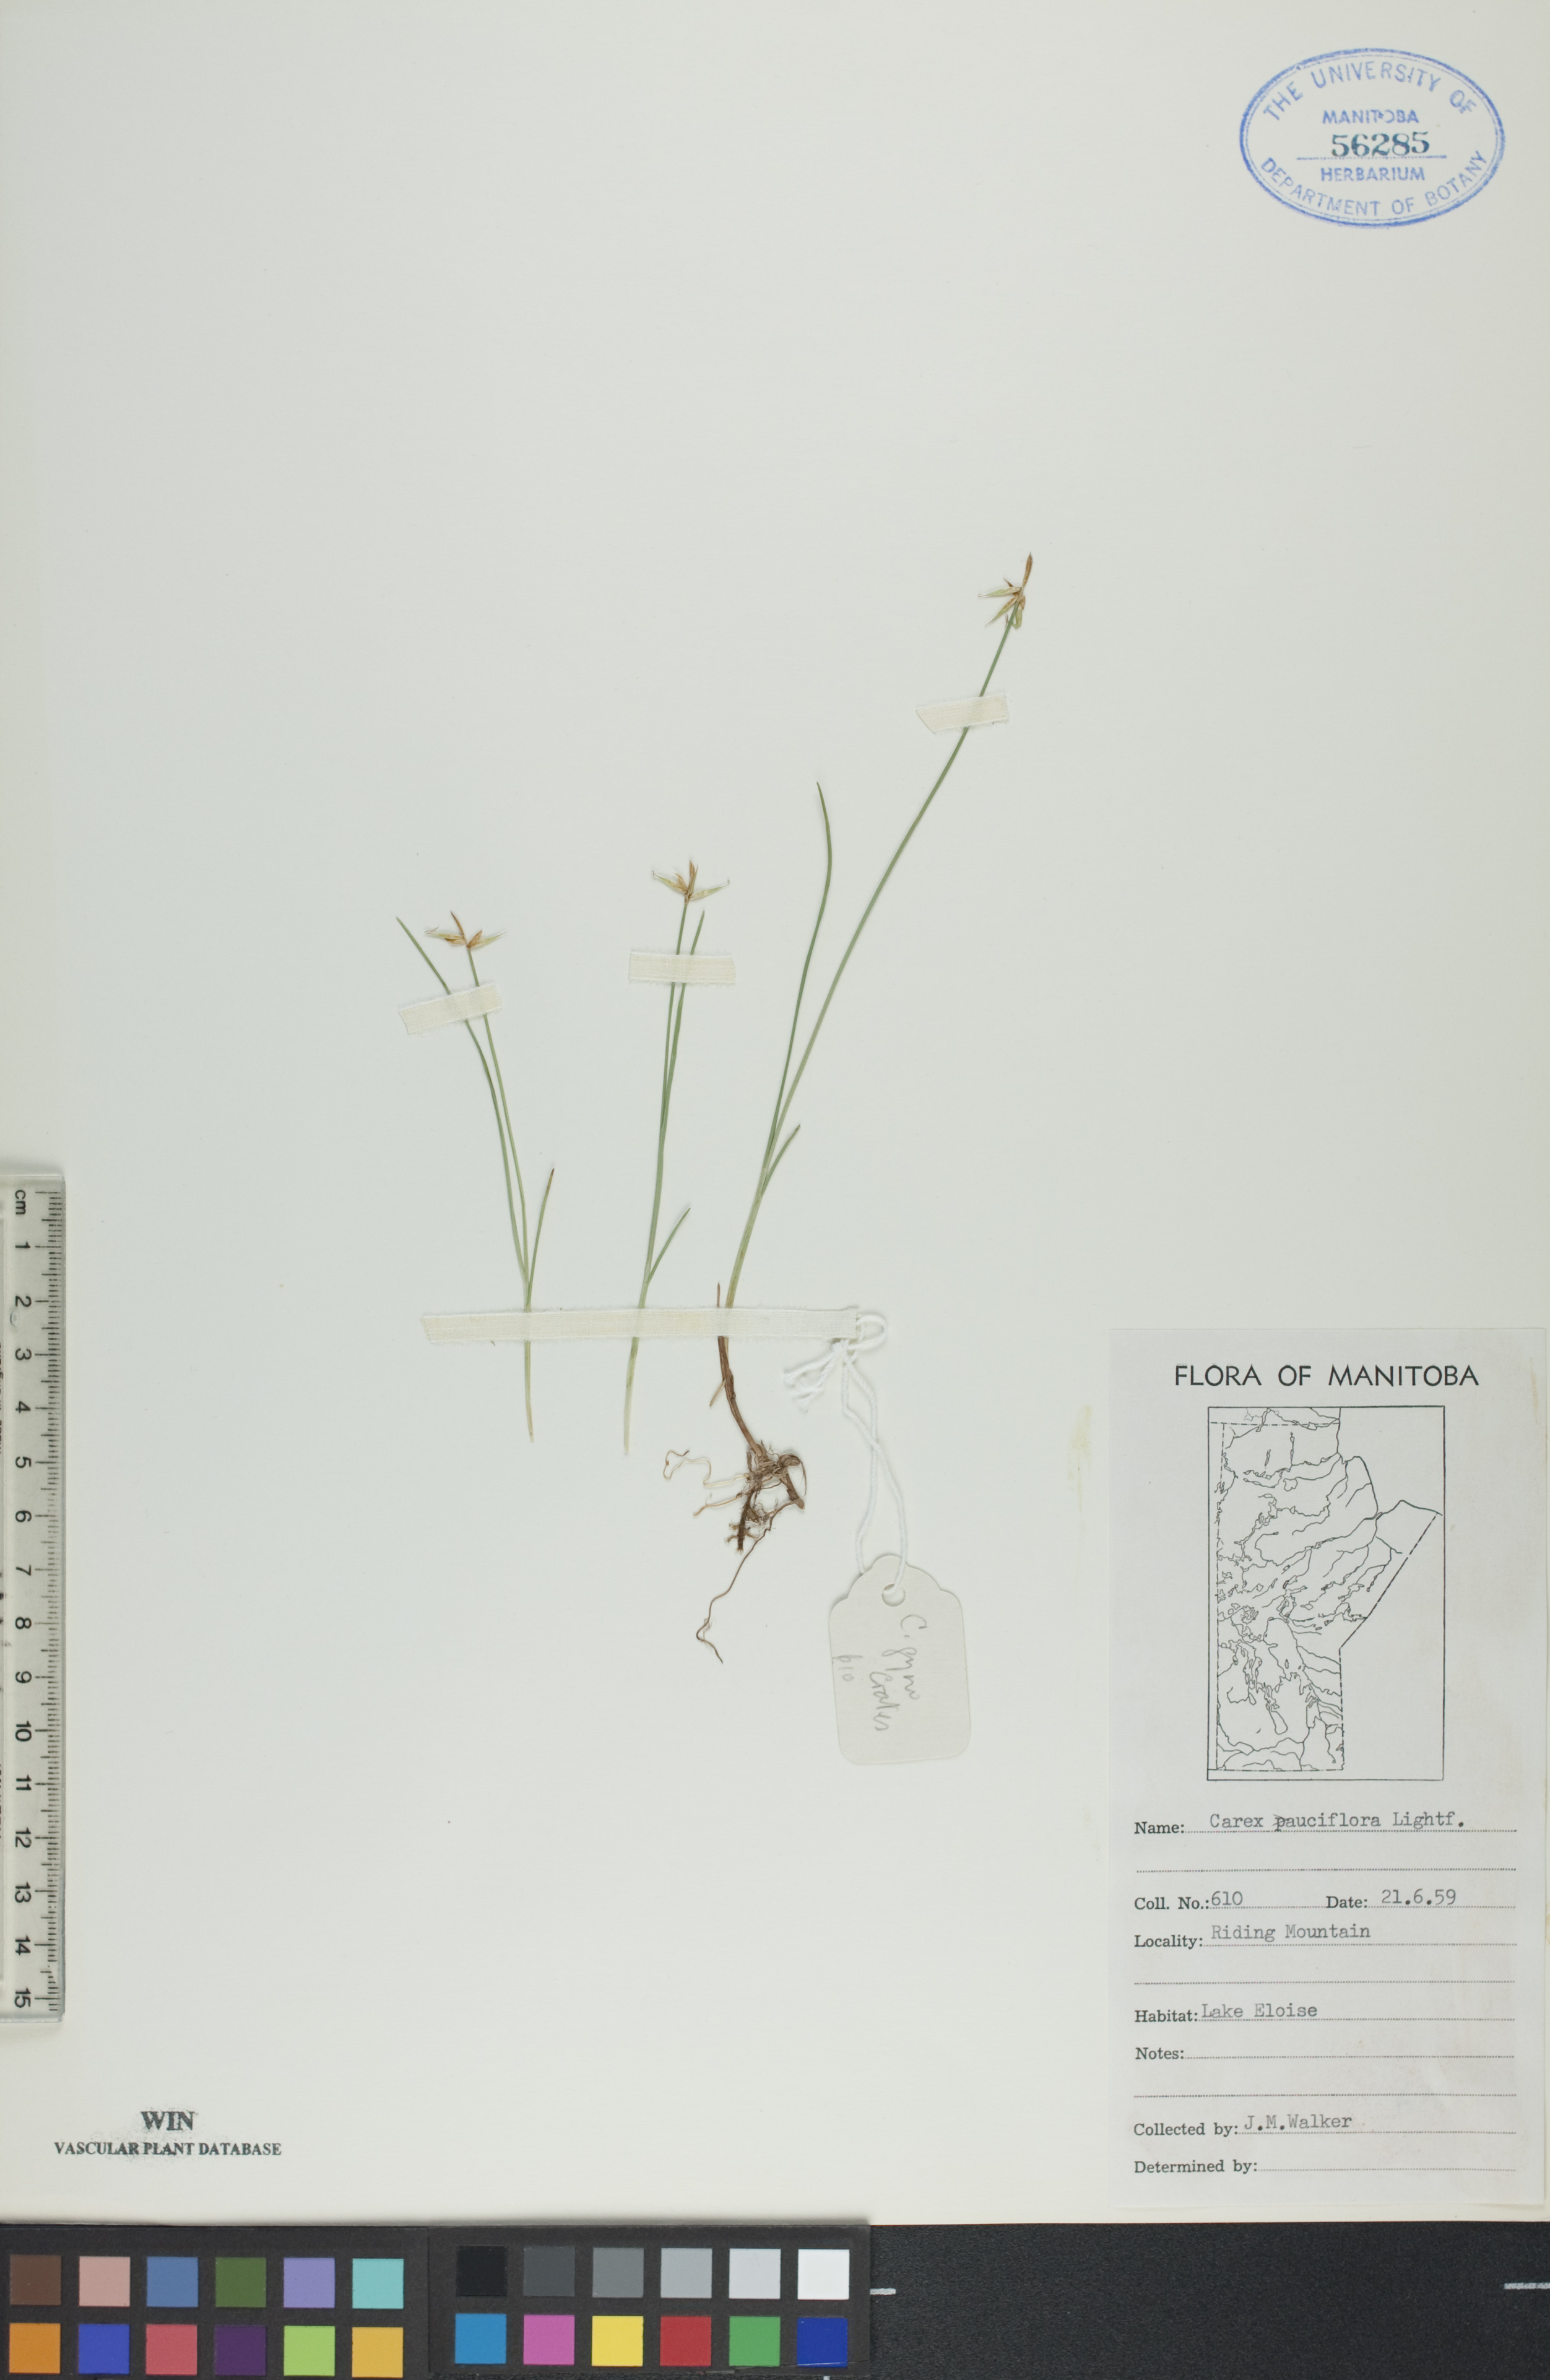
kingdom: Plantae
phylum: Tracheophyta
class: Liliopsida
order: Poales
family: Cyperaceae
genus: Carex
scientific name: Carex pauciflora
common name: Few-flowered sedge
